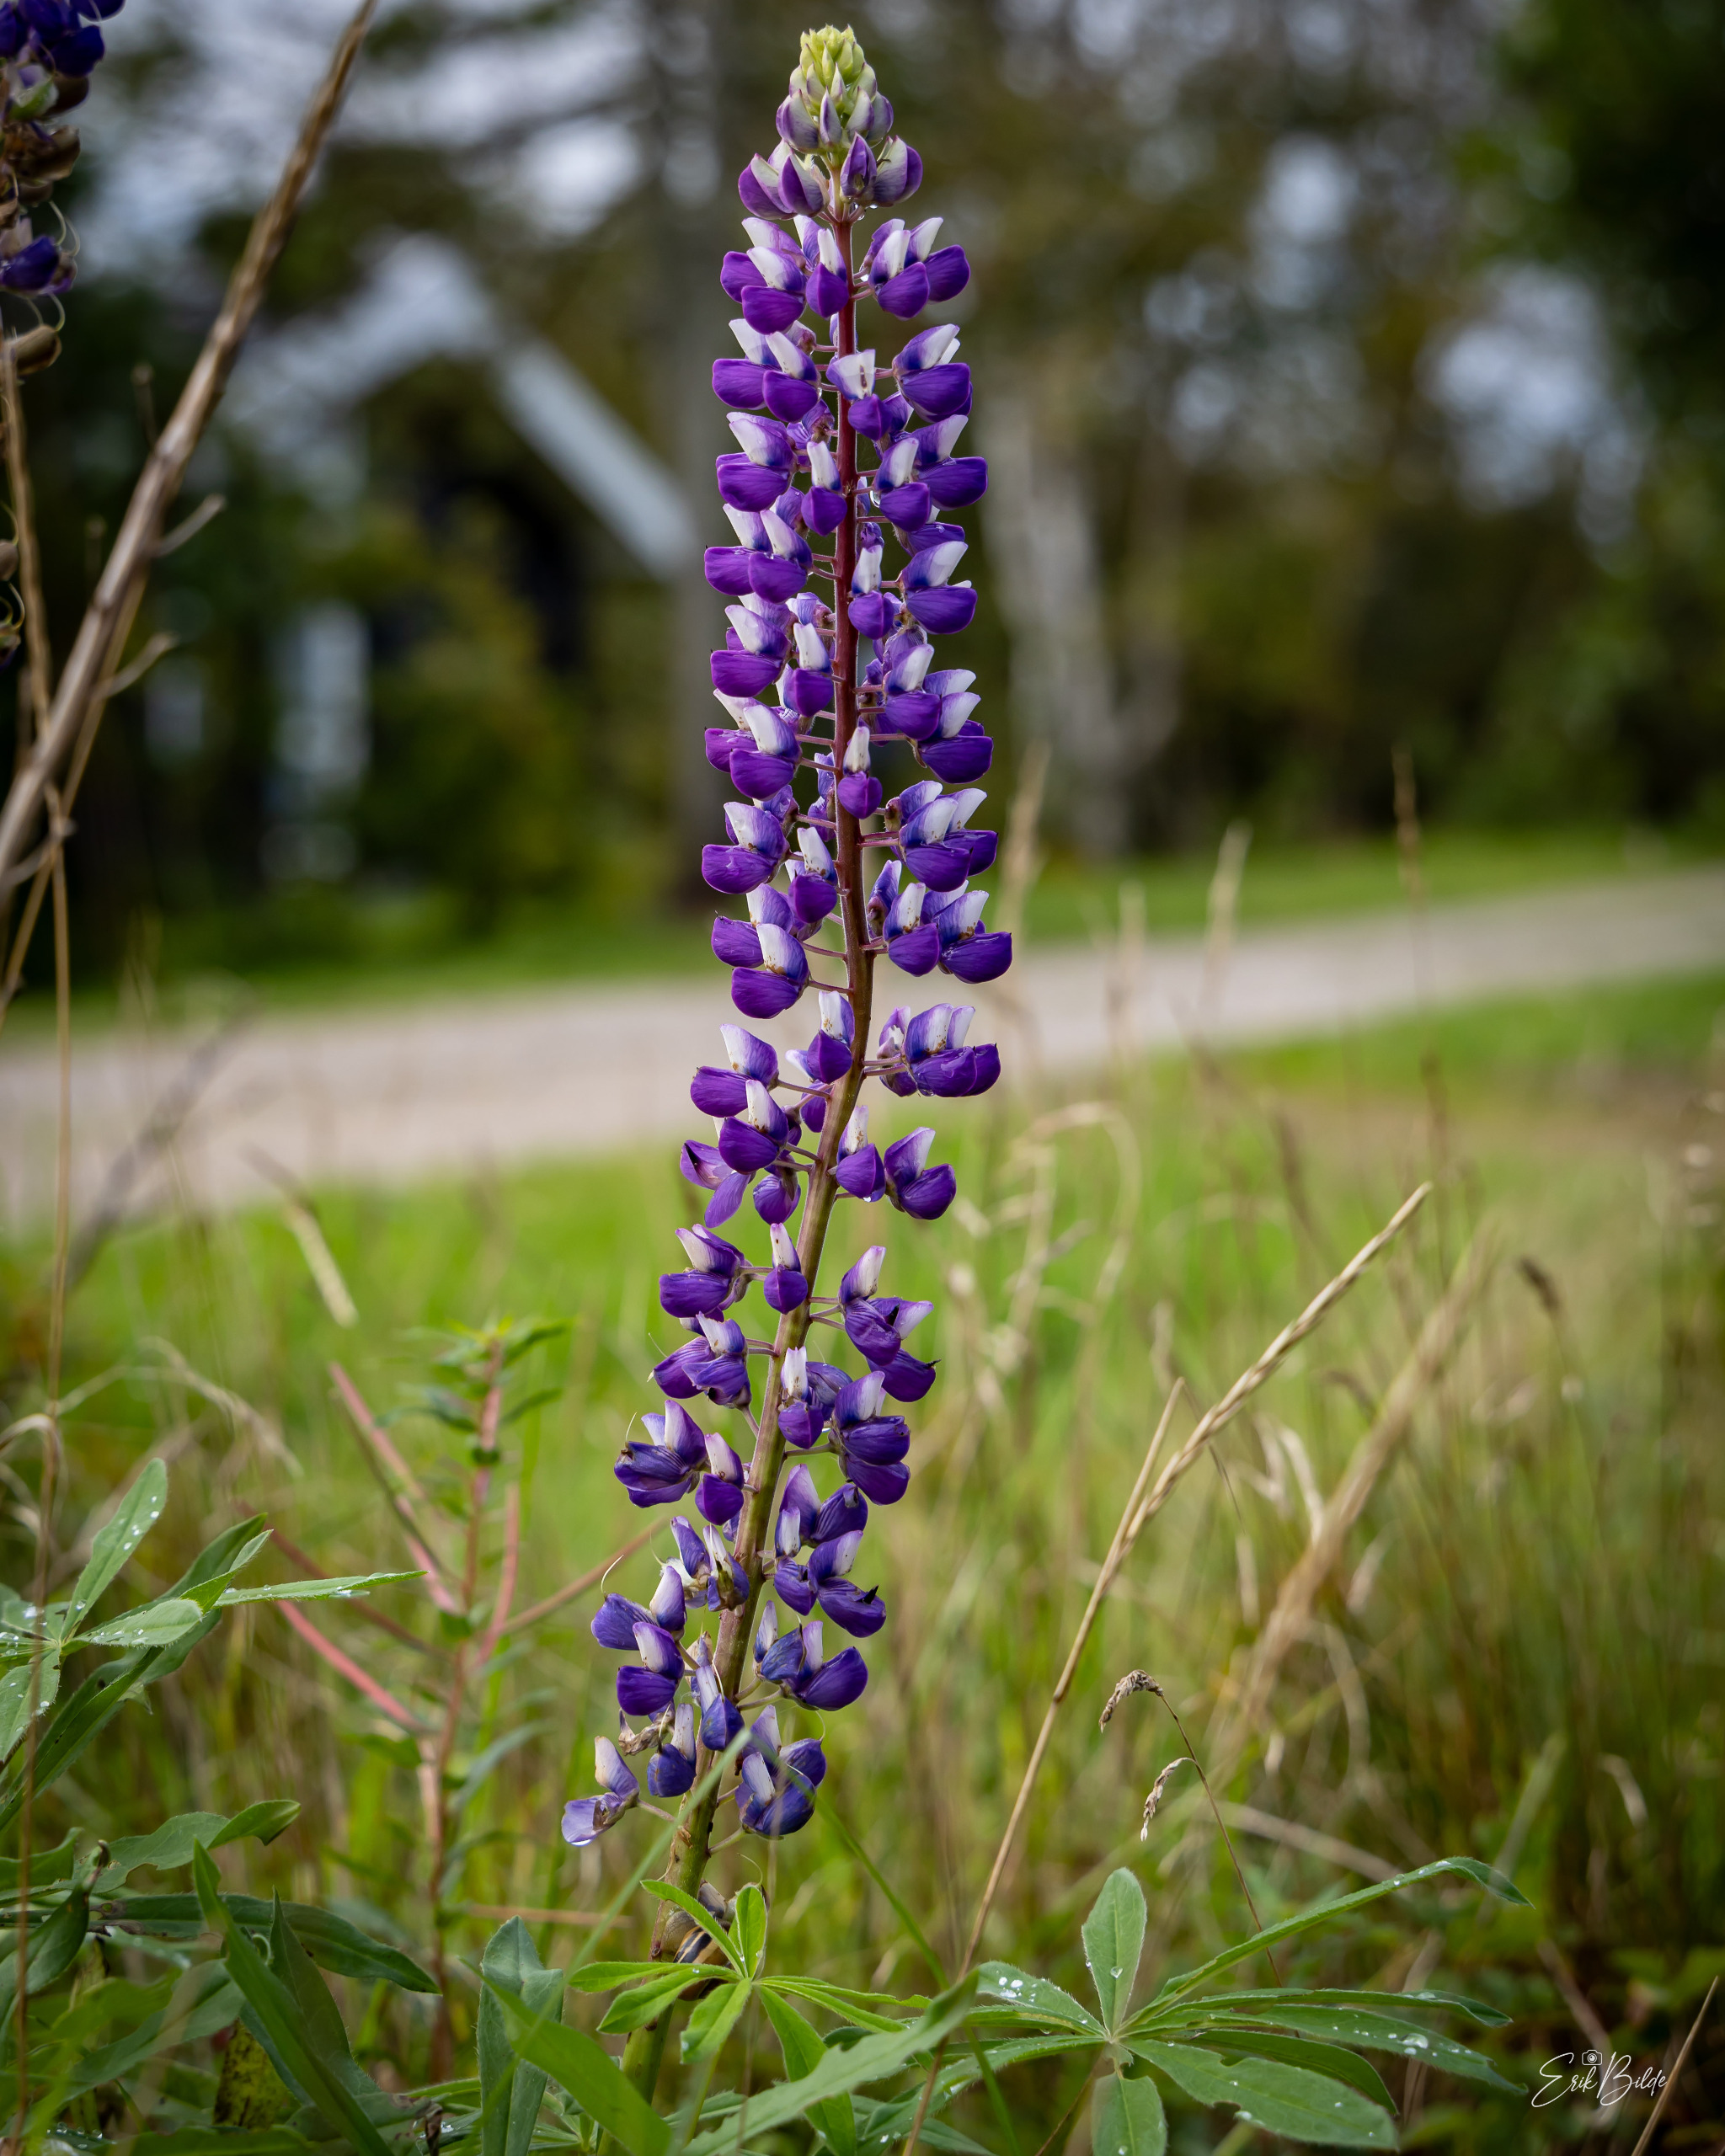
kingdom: Plantae
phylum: Tracheophyta
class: Magnoliopsida
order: Fabales
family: Fabaceae
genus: Lupinus
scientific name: Lupinus polyphyllus
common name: Mangebladet lupin
